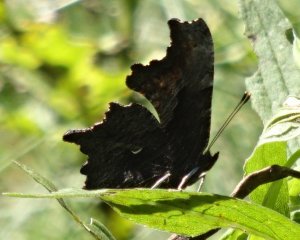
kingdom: Animalia
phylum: Arthropoda
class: Insecta
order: Lepidoptera
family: Nymphalidae
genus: Polygonia
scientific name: Polygonia progne
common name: Gray Comma
